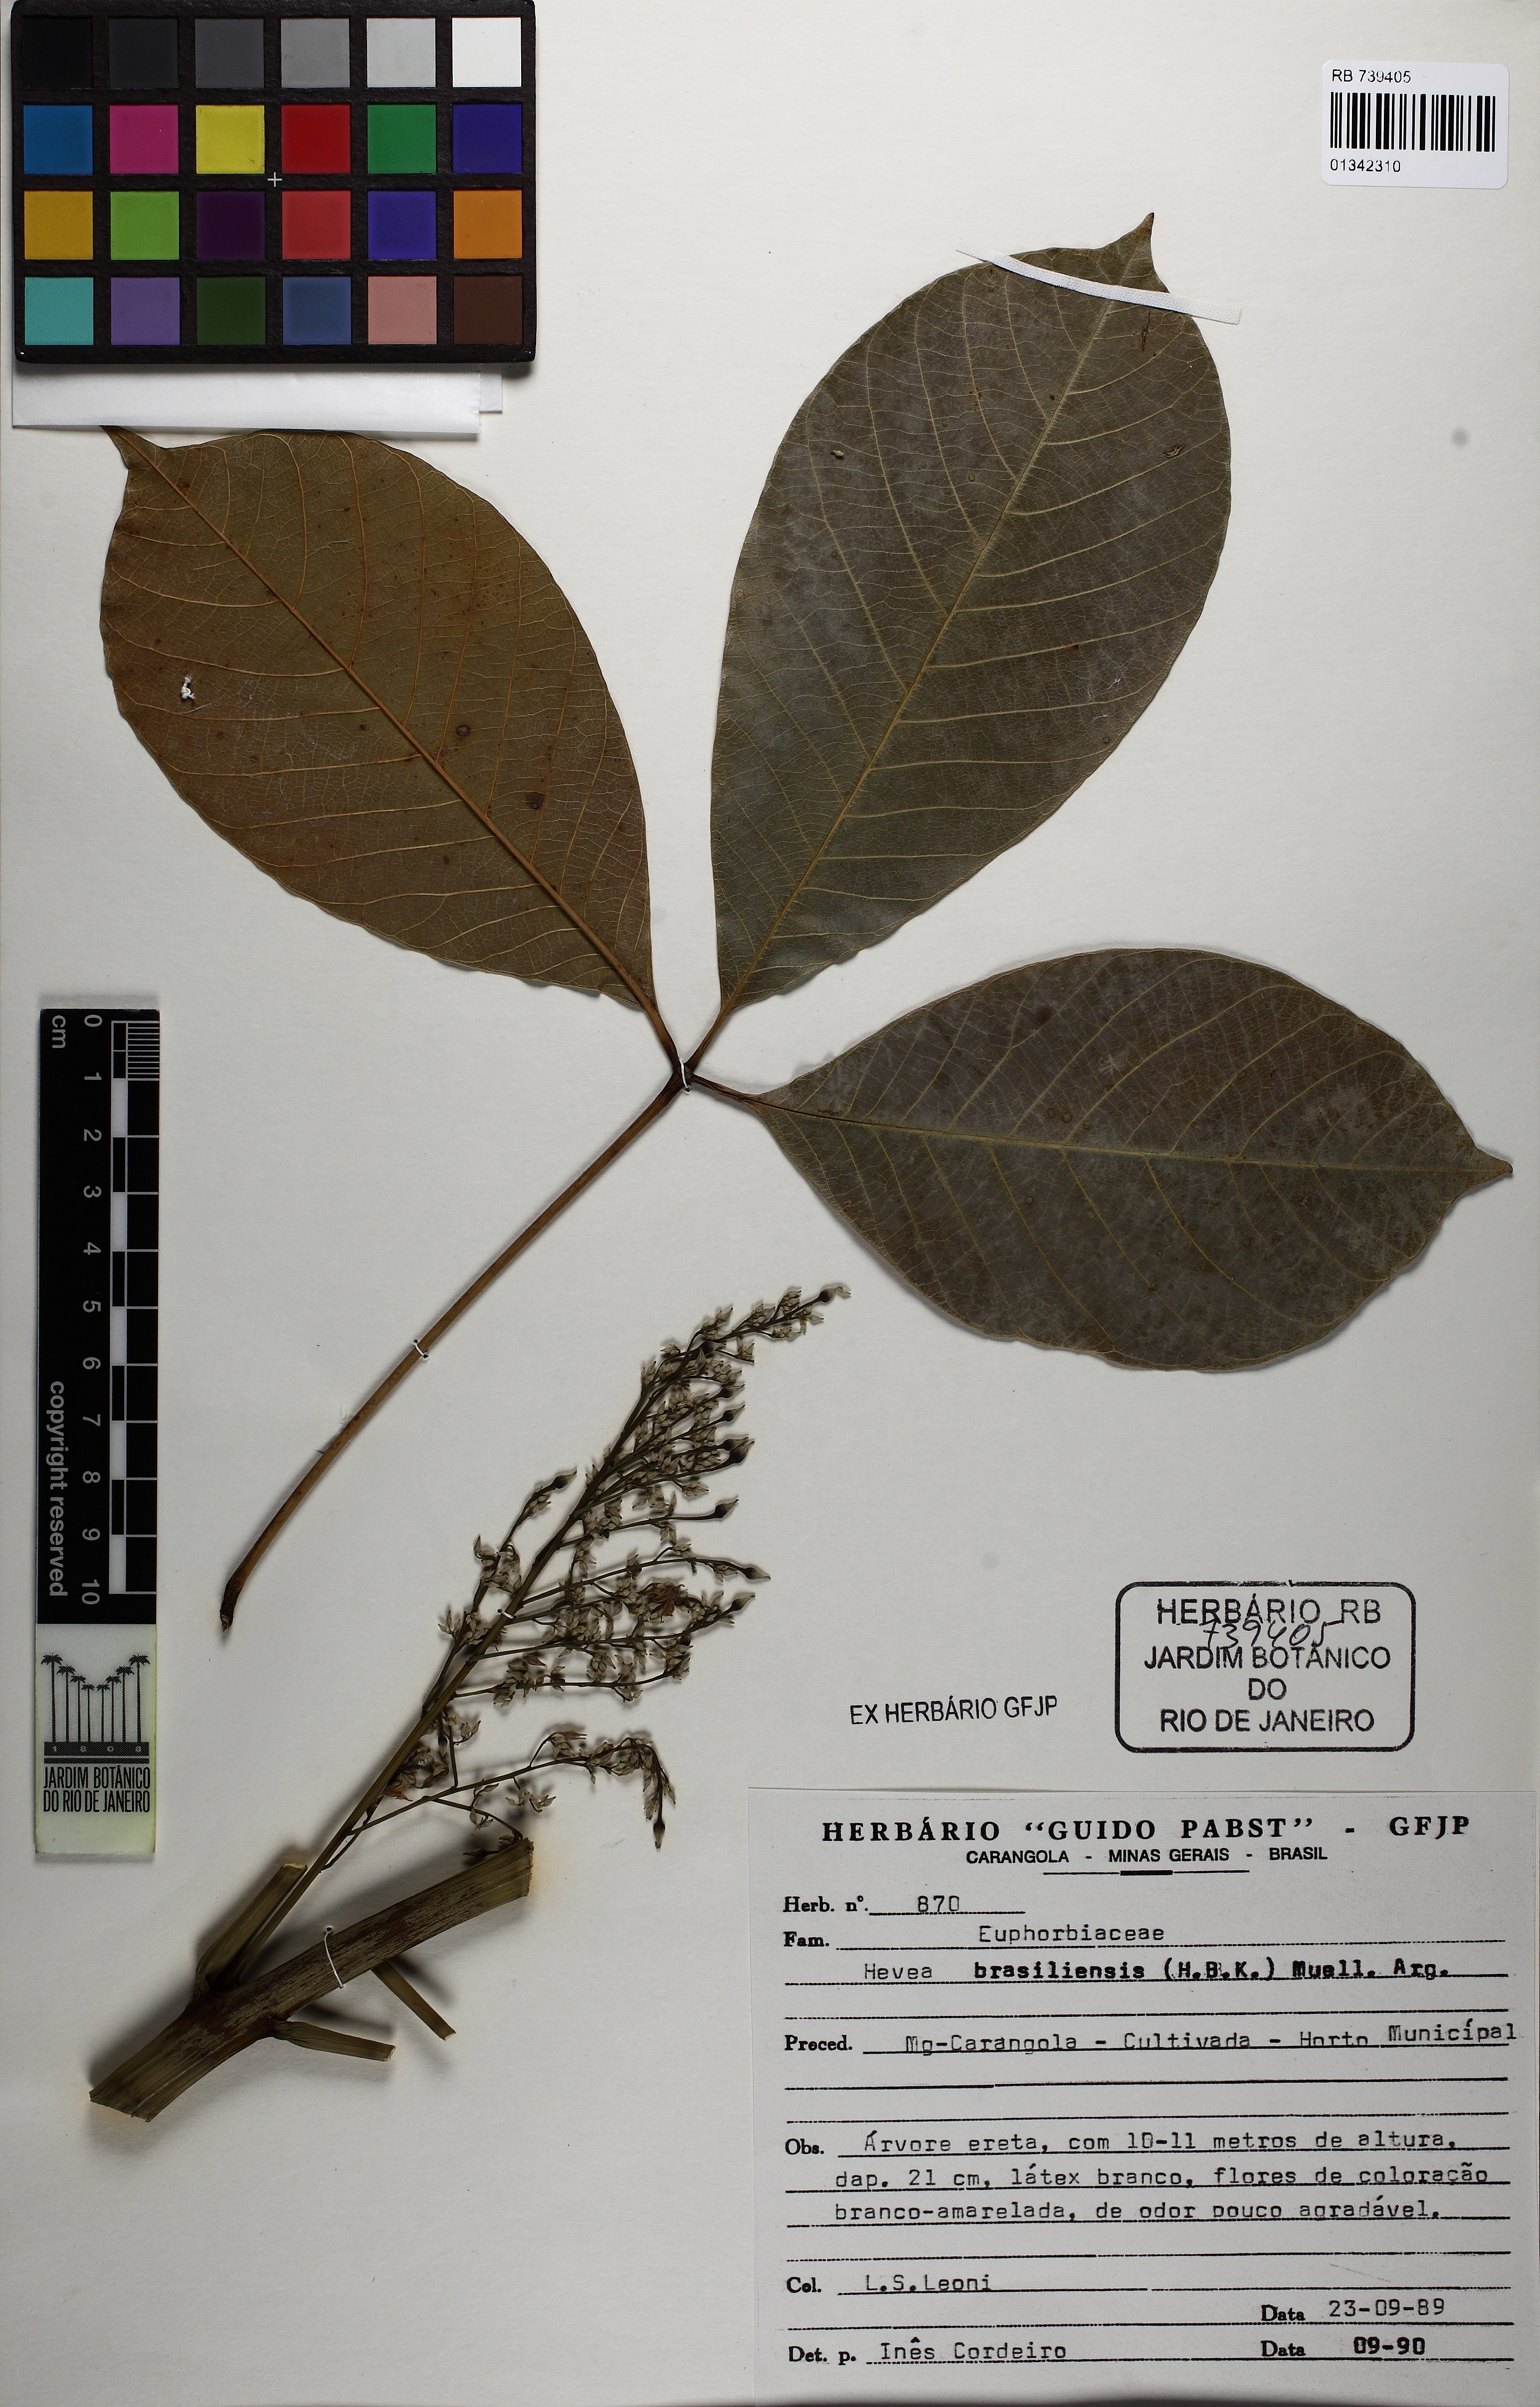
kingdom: Plantae
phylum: Tracheophyta
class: Magnoliopsida
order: Malpighiales
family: Euphorbiaceae
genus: Hevea
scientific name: Hevea brasiliensis
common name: Natural rubber
